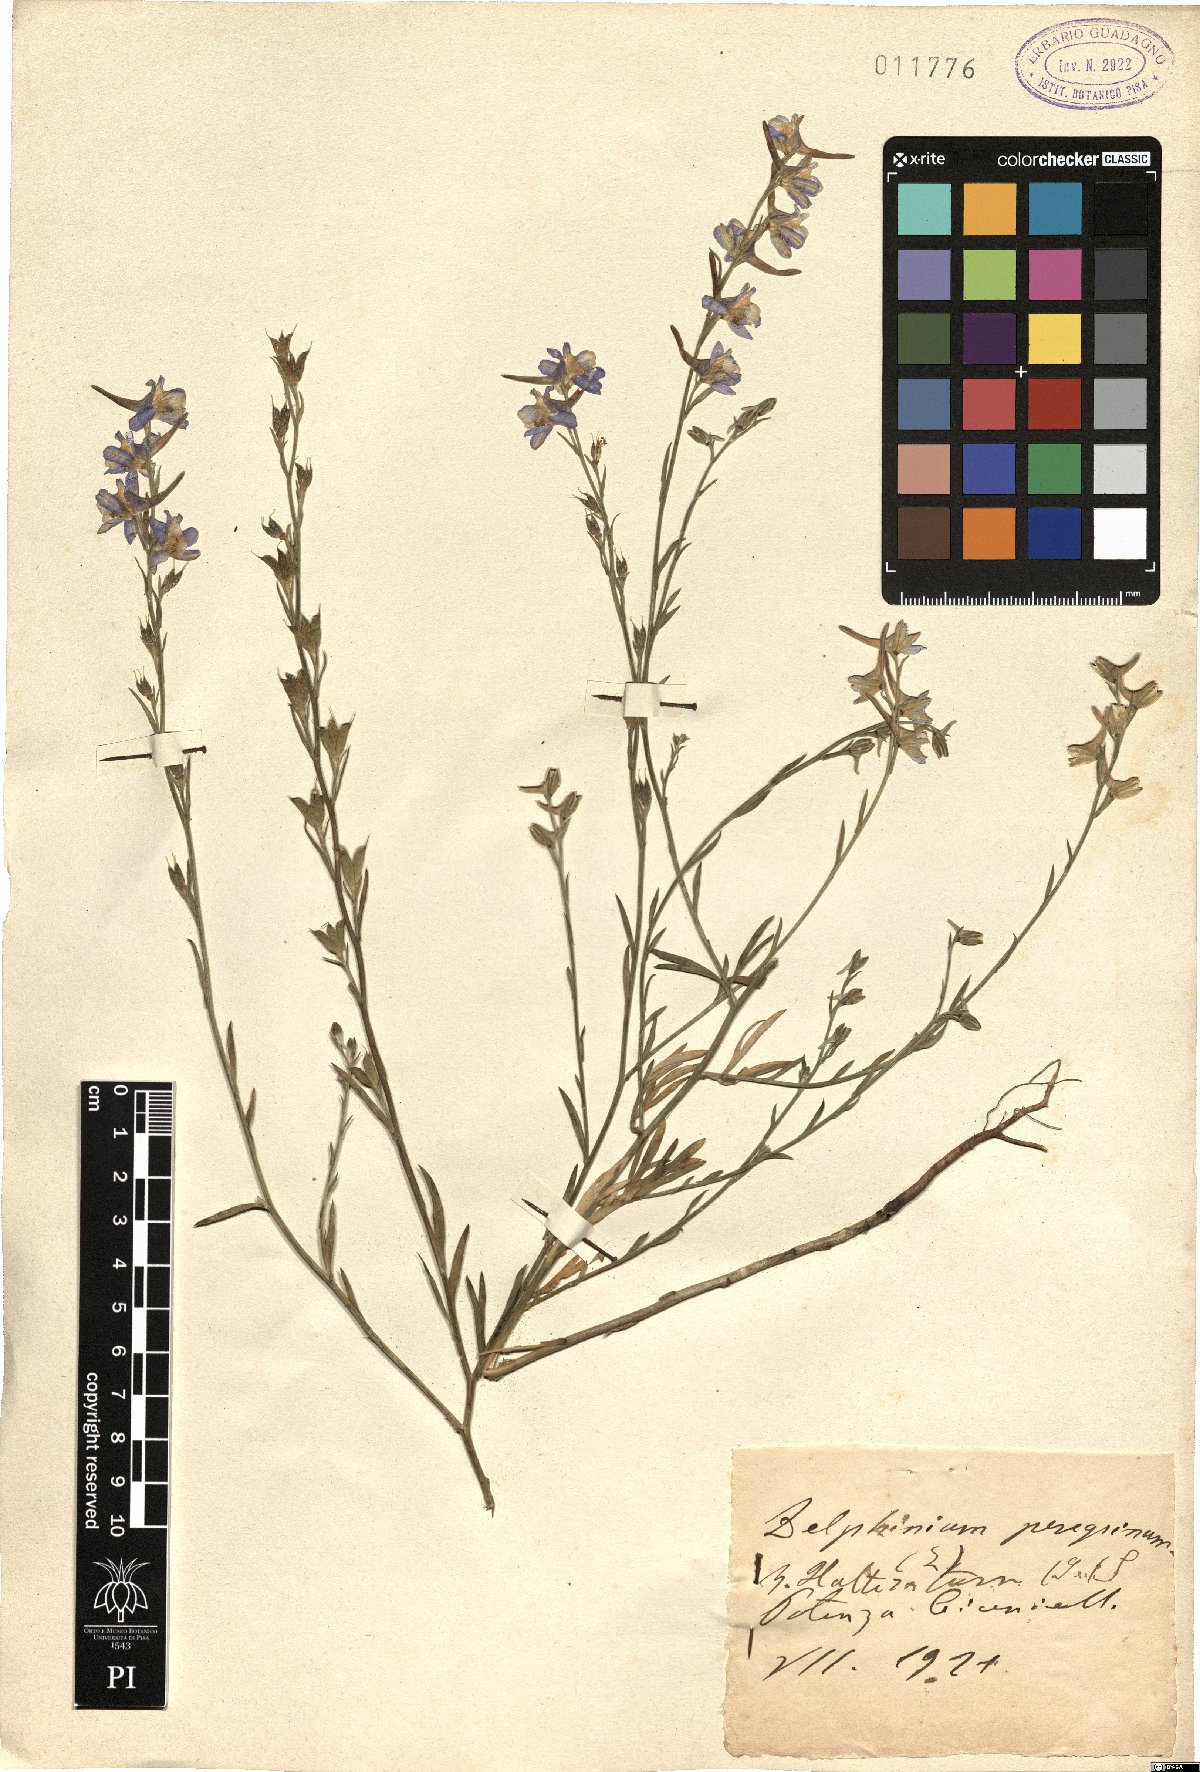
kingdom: Plantae
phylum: Tracheophyta
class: Magnoliopsida
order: Ranunculales
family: Ranunculaceae
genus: Delphinium
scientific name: Delphinium halteratum
